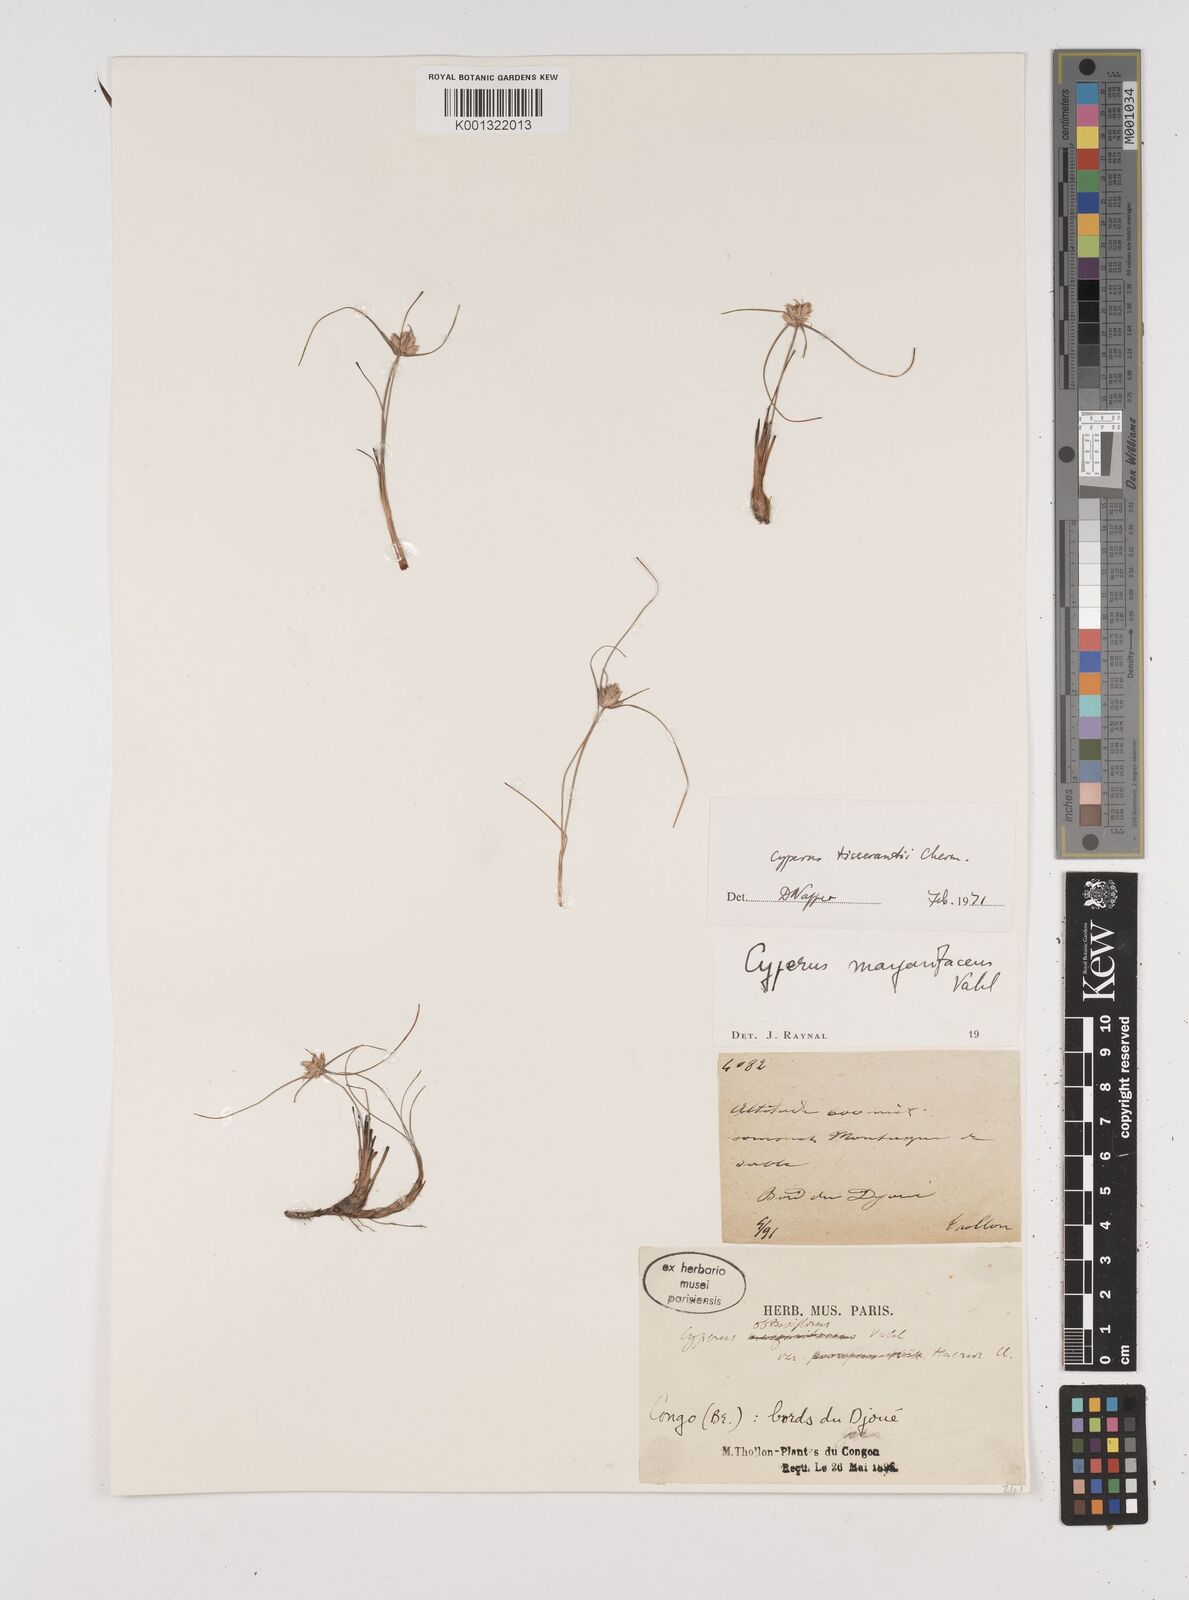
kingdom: Plantae
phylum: Tracheophyta
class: Liliopsida
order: Poales
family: Cyperaceae
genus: Cyperus
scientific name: Cyperus niveus
